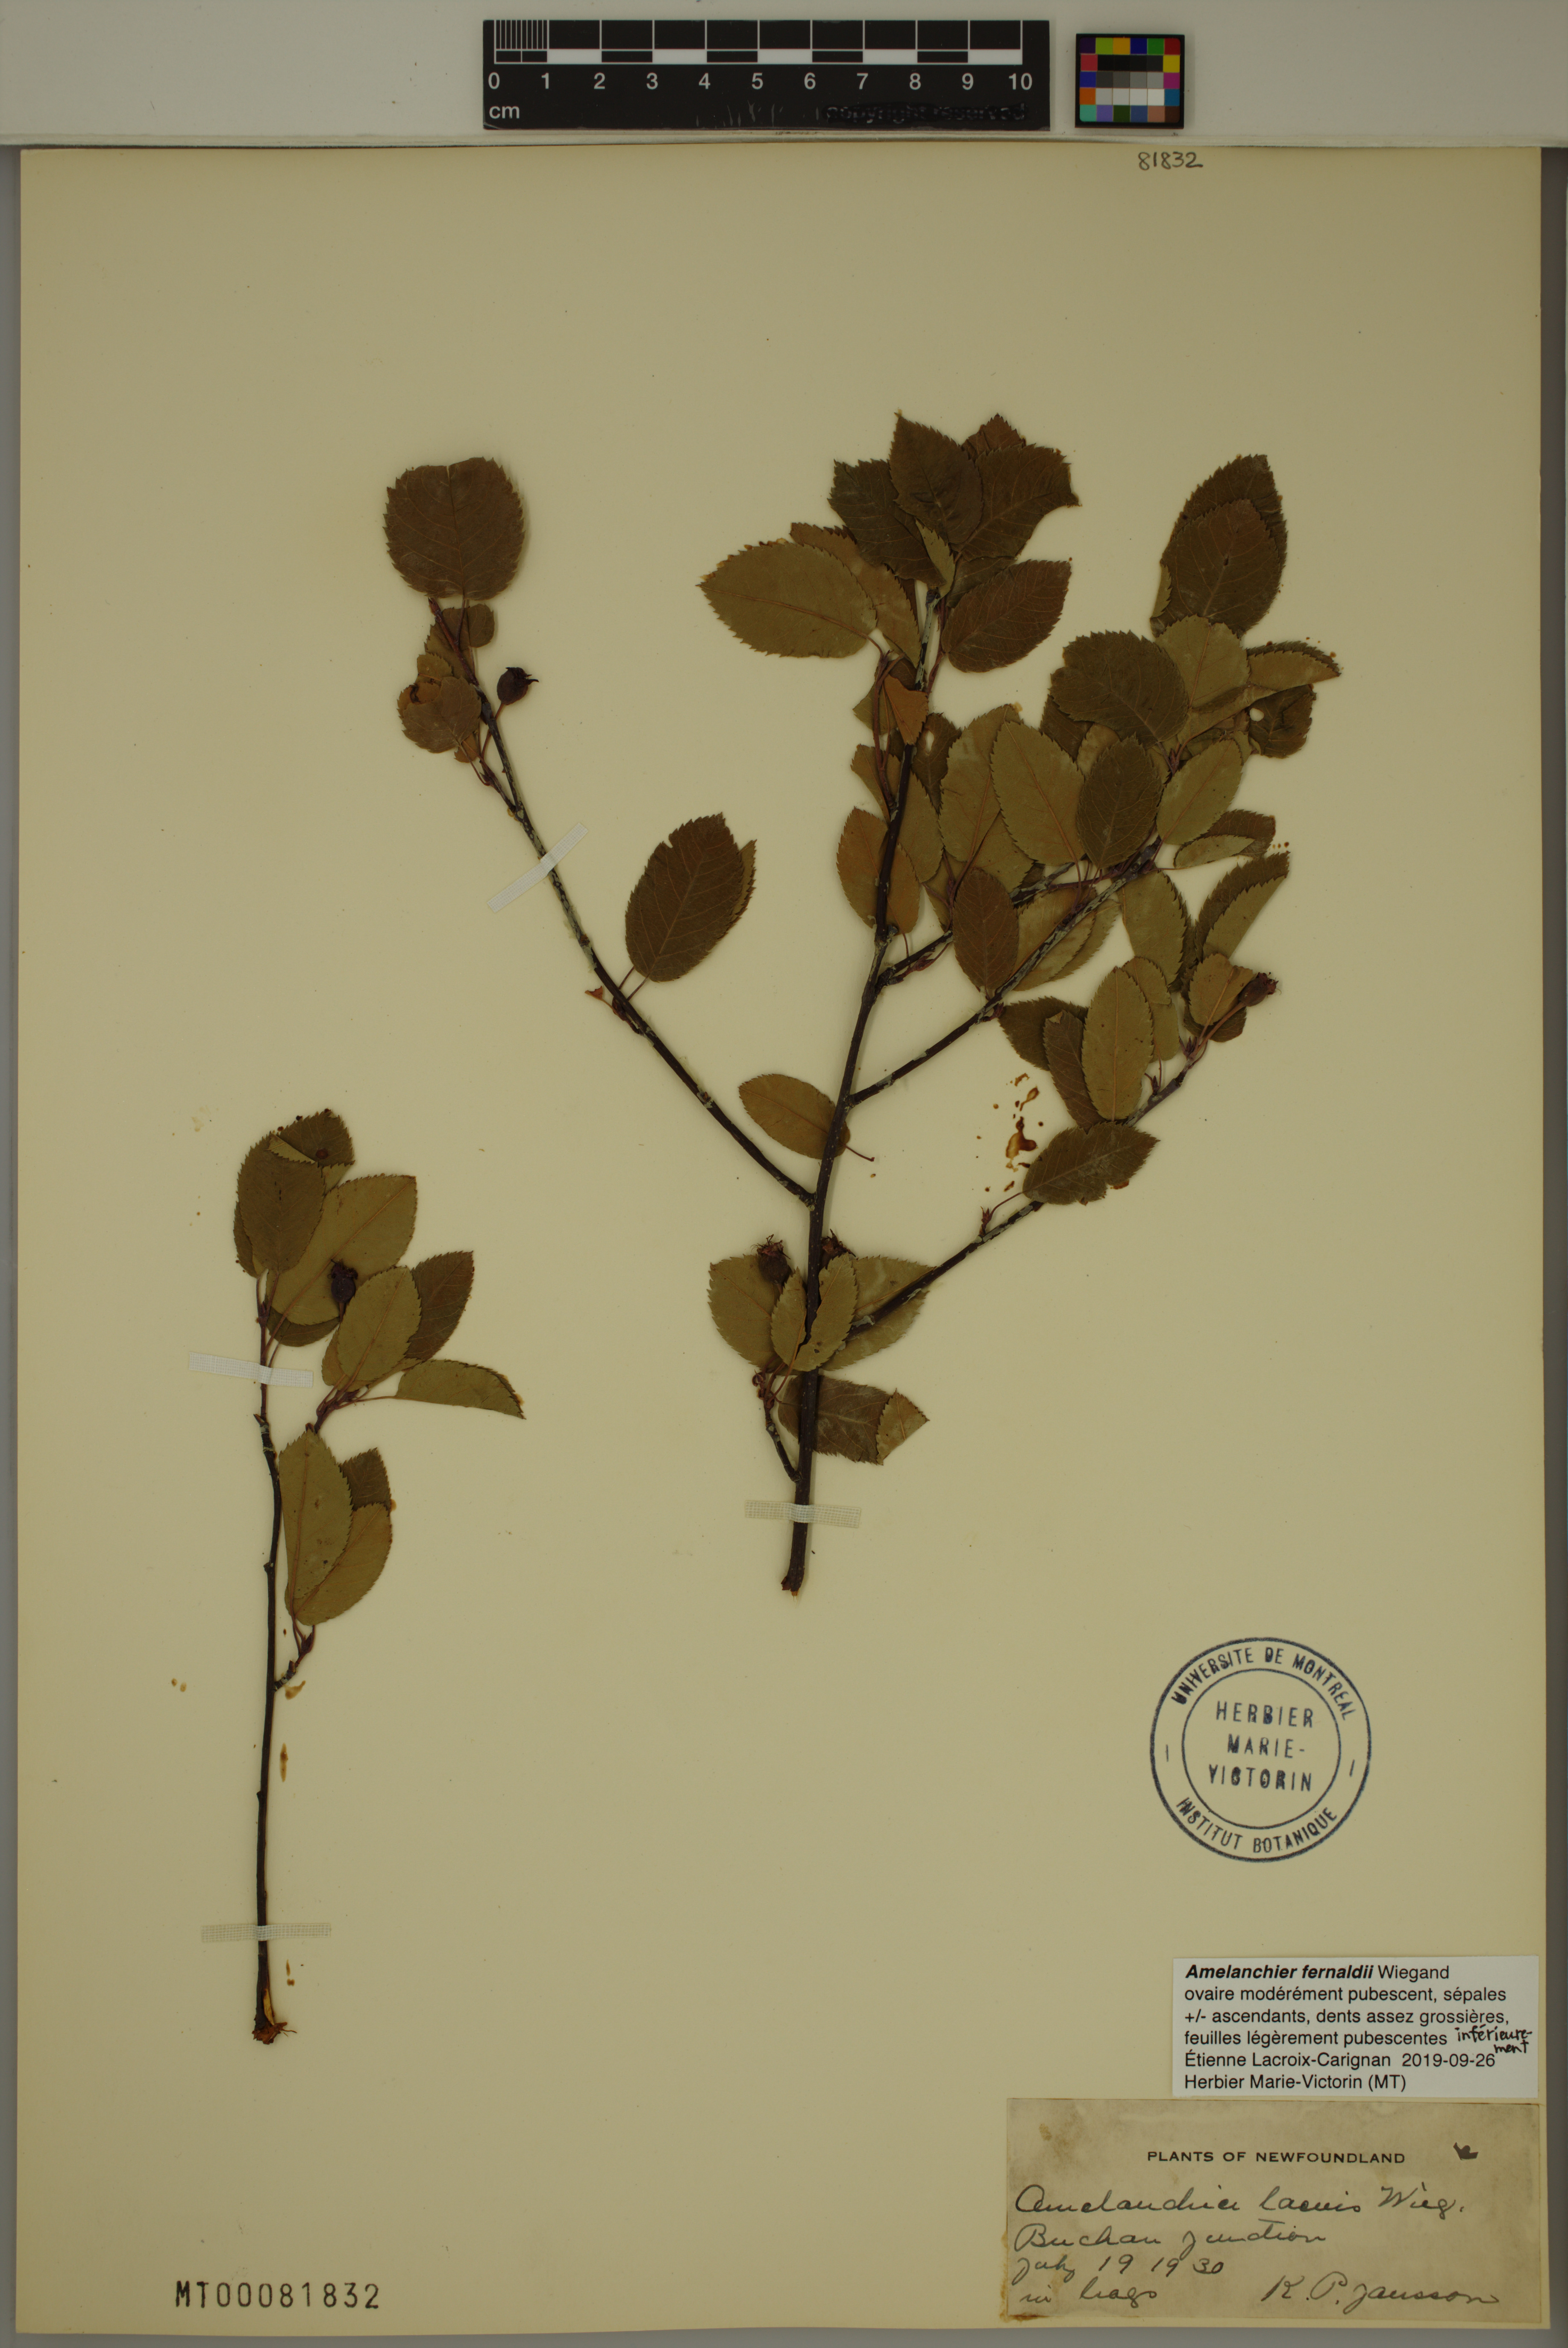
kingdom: Plantae
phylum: Tracheophyta
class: Magnoliopsida
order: Rosales
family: Rosaceae
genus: Amelanchier
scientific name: Amelanchier canadensis
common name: Thicket serviceberry
